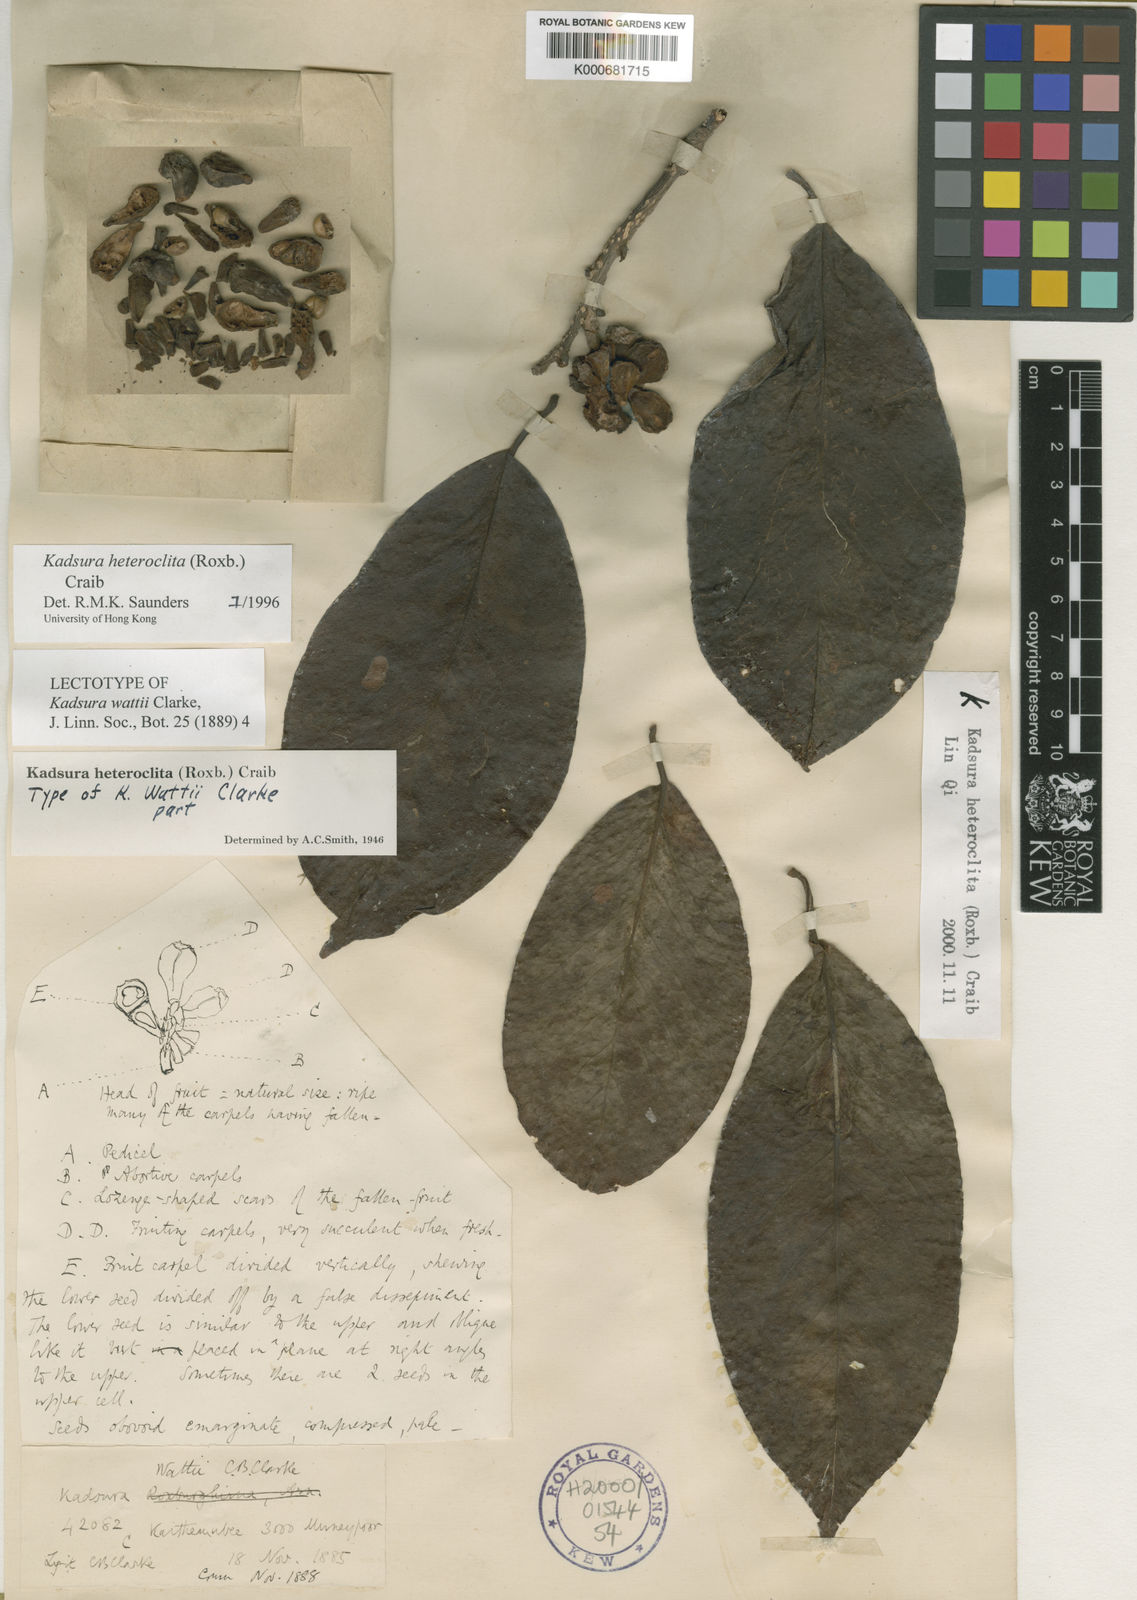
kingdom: Plantae
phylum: Tracheophyta
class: Magnoliopsida
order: Austrobaileyales
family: Schisandraceae
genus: Kadsura
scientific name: Kadsura heteroclita
